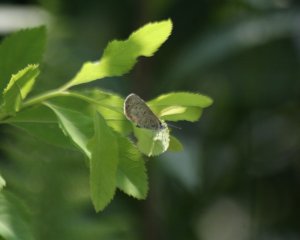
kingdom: Animalia
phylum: Arthropoda
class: Insecta
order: Lepidoptera
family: Lycaenidae
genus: Celastrina
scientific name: Celastrina serotina
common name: Cherry Gall Azure
